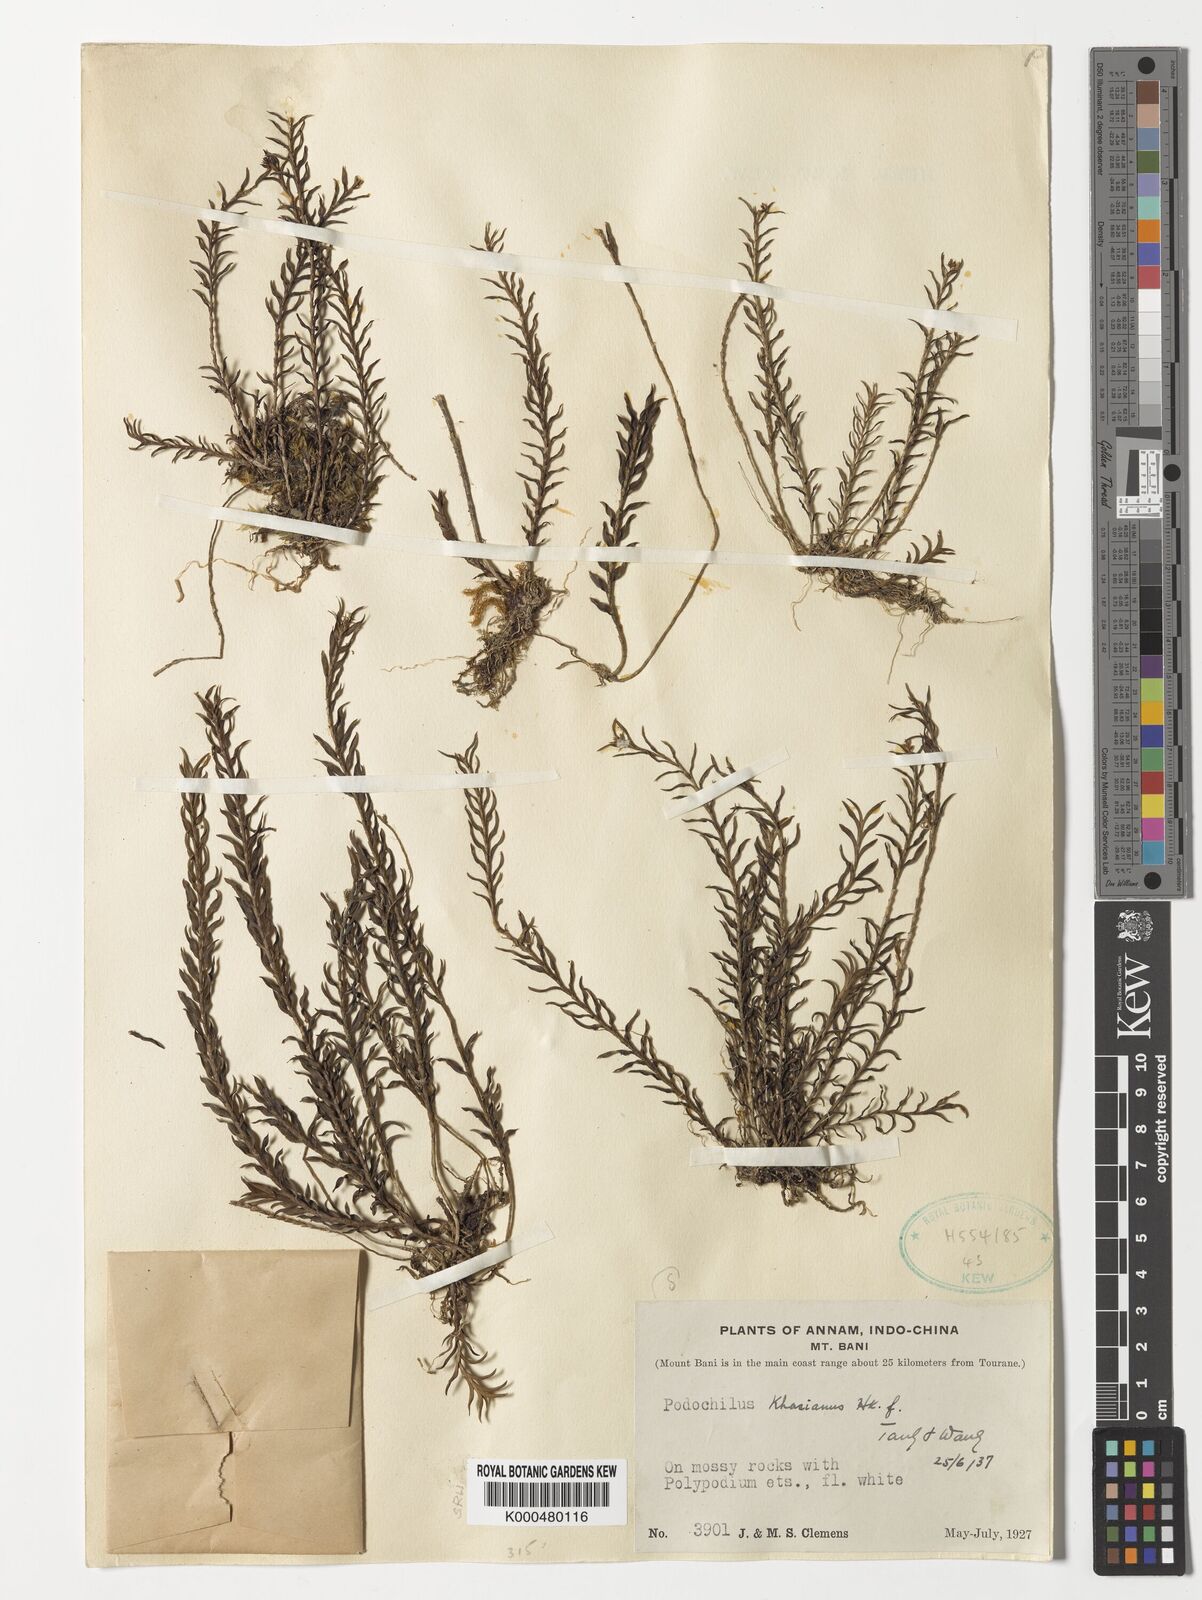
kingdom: Plantae
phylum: Tracheophyta
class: Liliopsida
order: Asparagales
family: Orchidaceae
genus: Podochilus
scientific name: Podochilus khasianus
